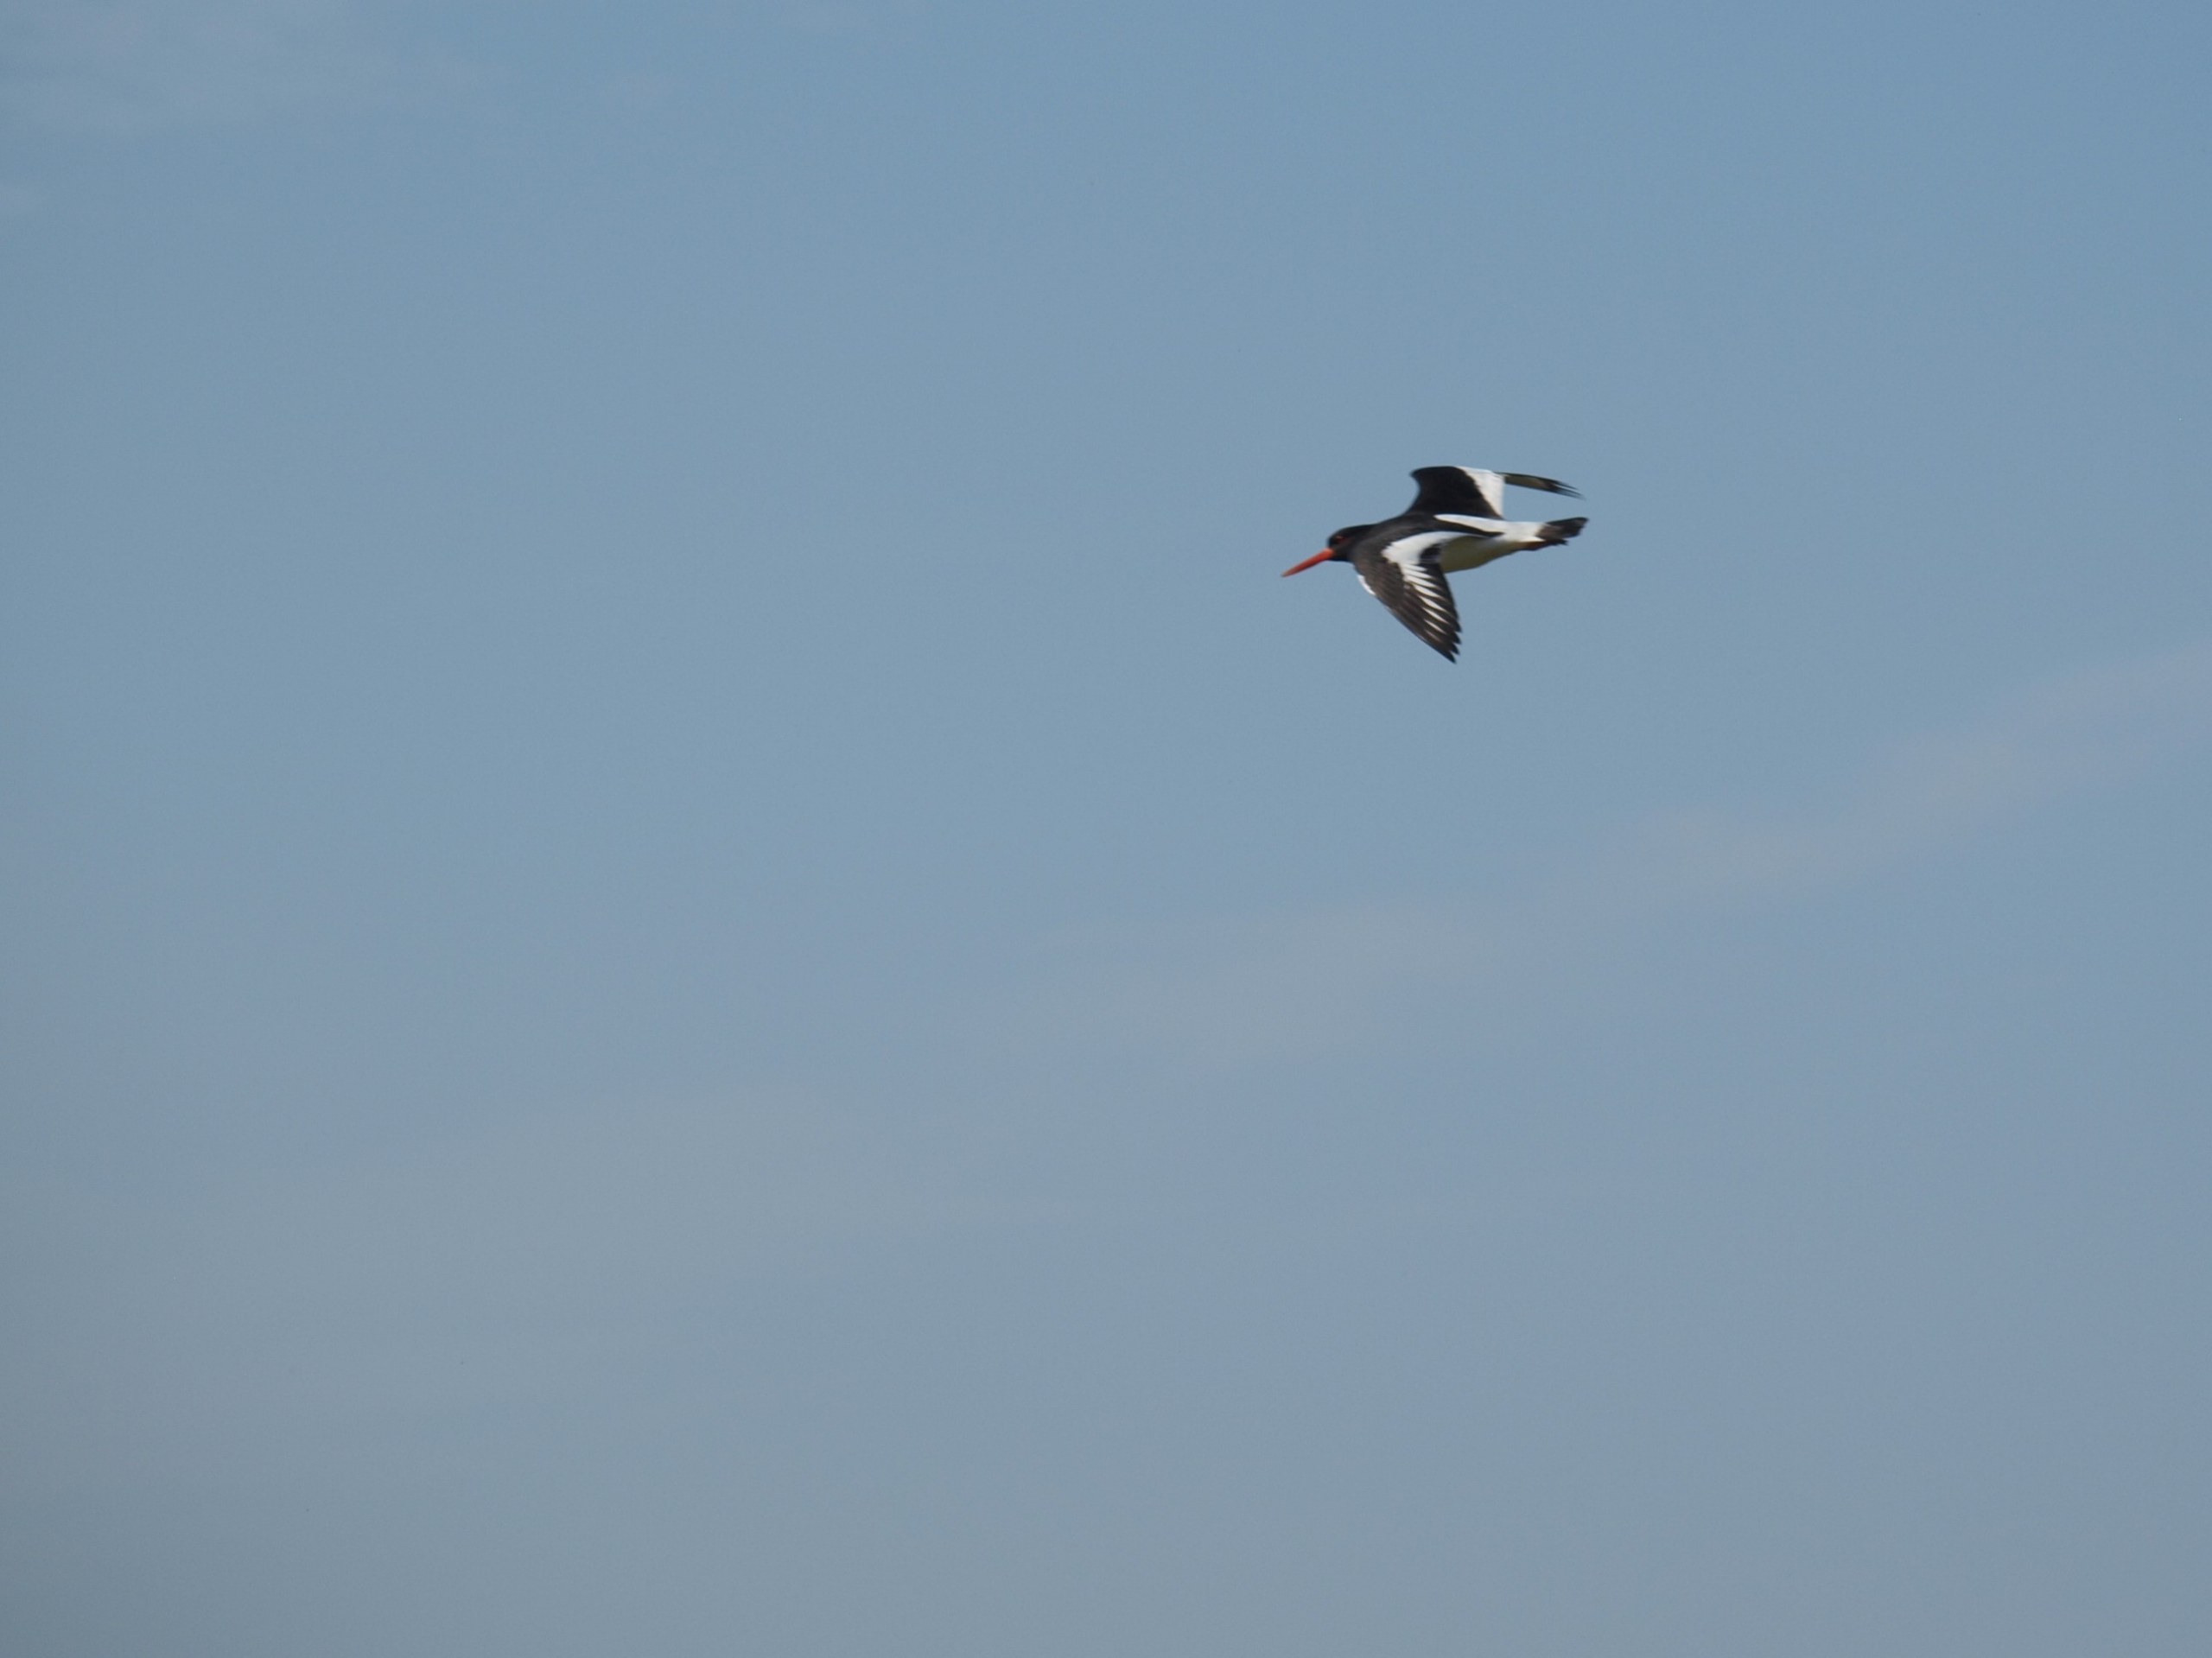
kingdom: Animalia
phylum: Chordata
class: Aves
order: Charadriiformes
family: Haematopodidae
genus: Haematopus
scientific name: Haematopus ostralegus
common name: Strandskade
